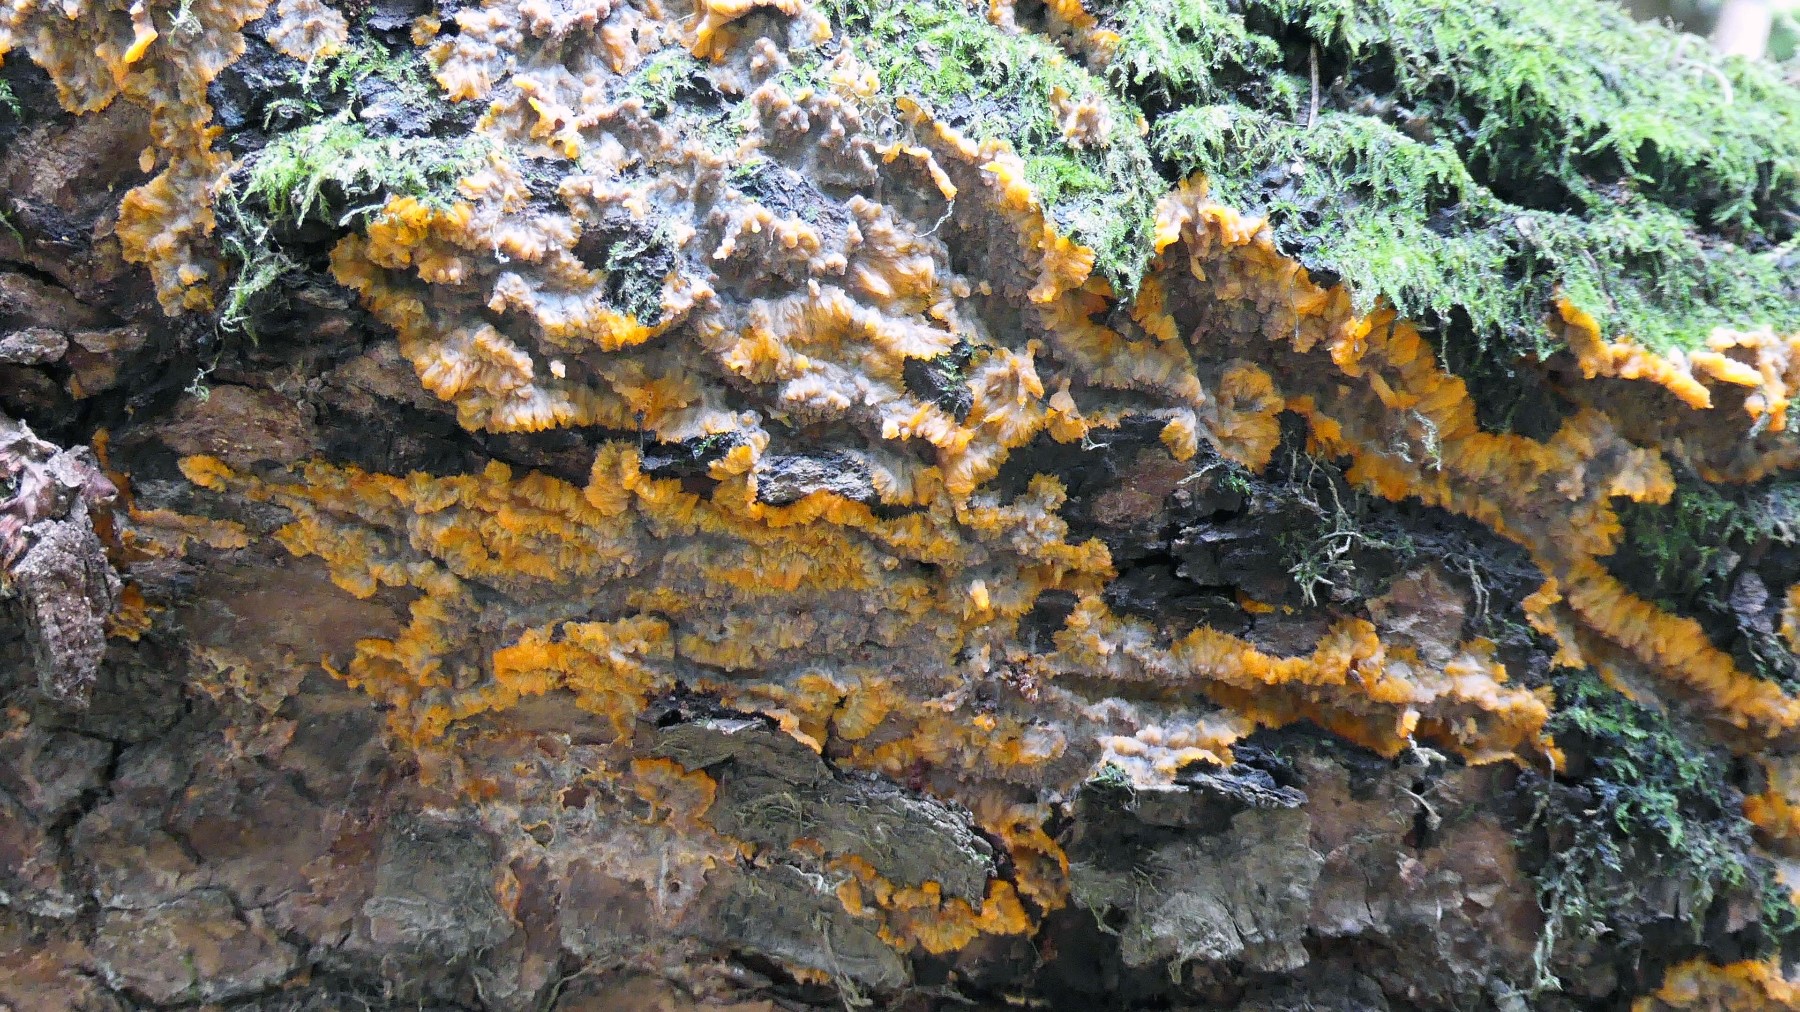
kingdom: Fungi
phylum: Basidiomycota
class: Agaricomycetes
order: Polyporales
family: Meruliaceae
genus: Phlebia
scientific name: Phlebia radiata
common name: stråle-åresvamp
